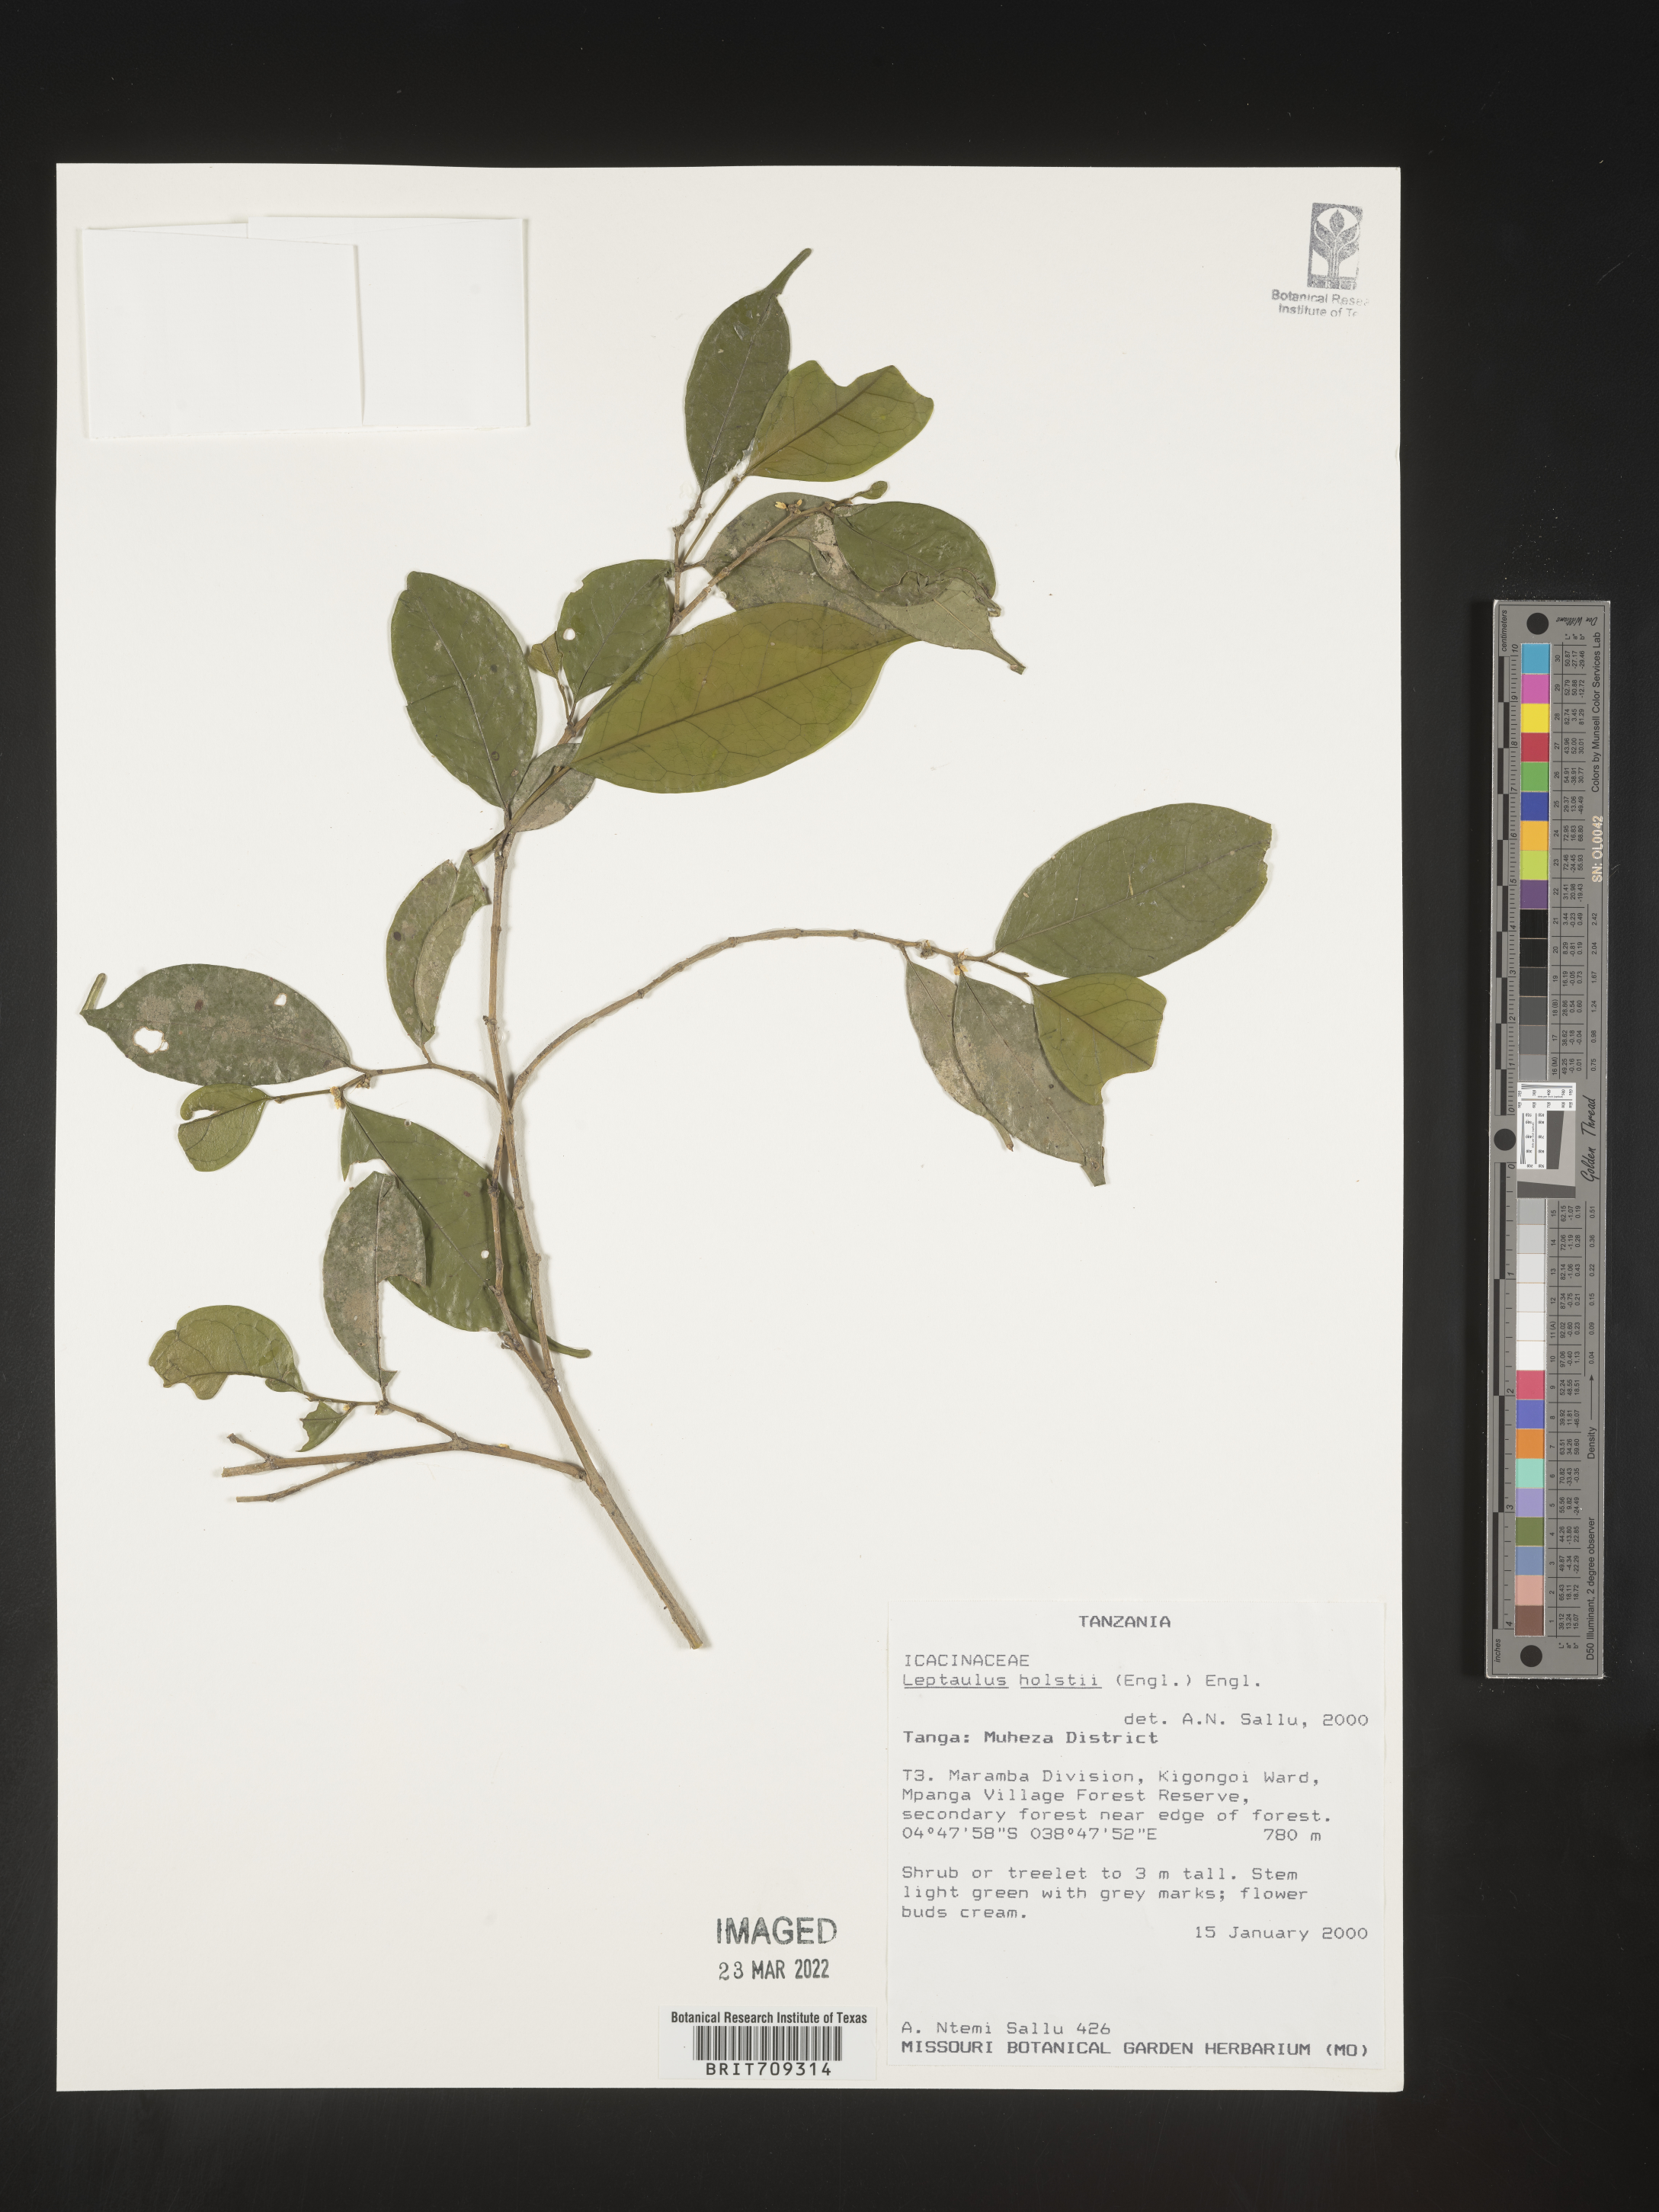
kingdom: Plantae
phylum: Tracheophyta
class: Magnoliopsida
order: Cardiopteridales
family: Cardiopteridaceae
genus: Leptaulus
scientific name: Leptaulus
